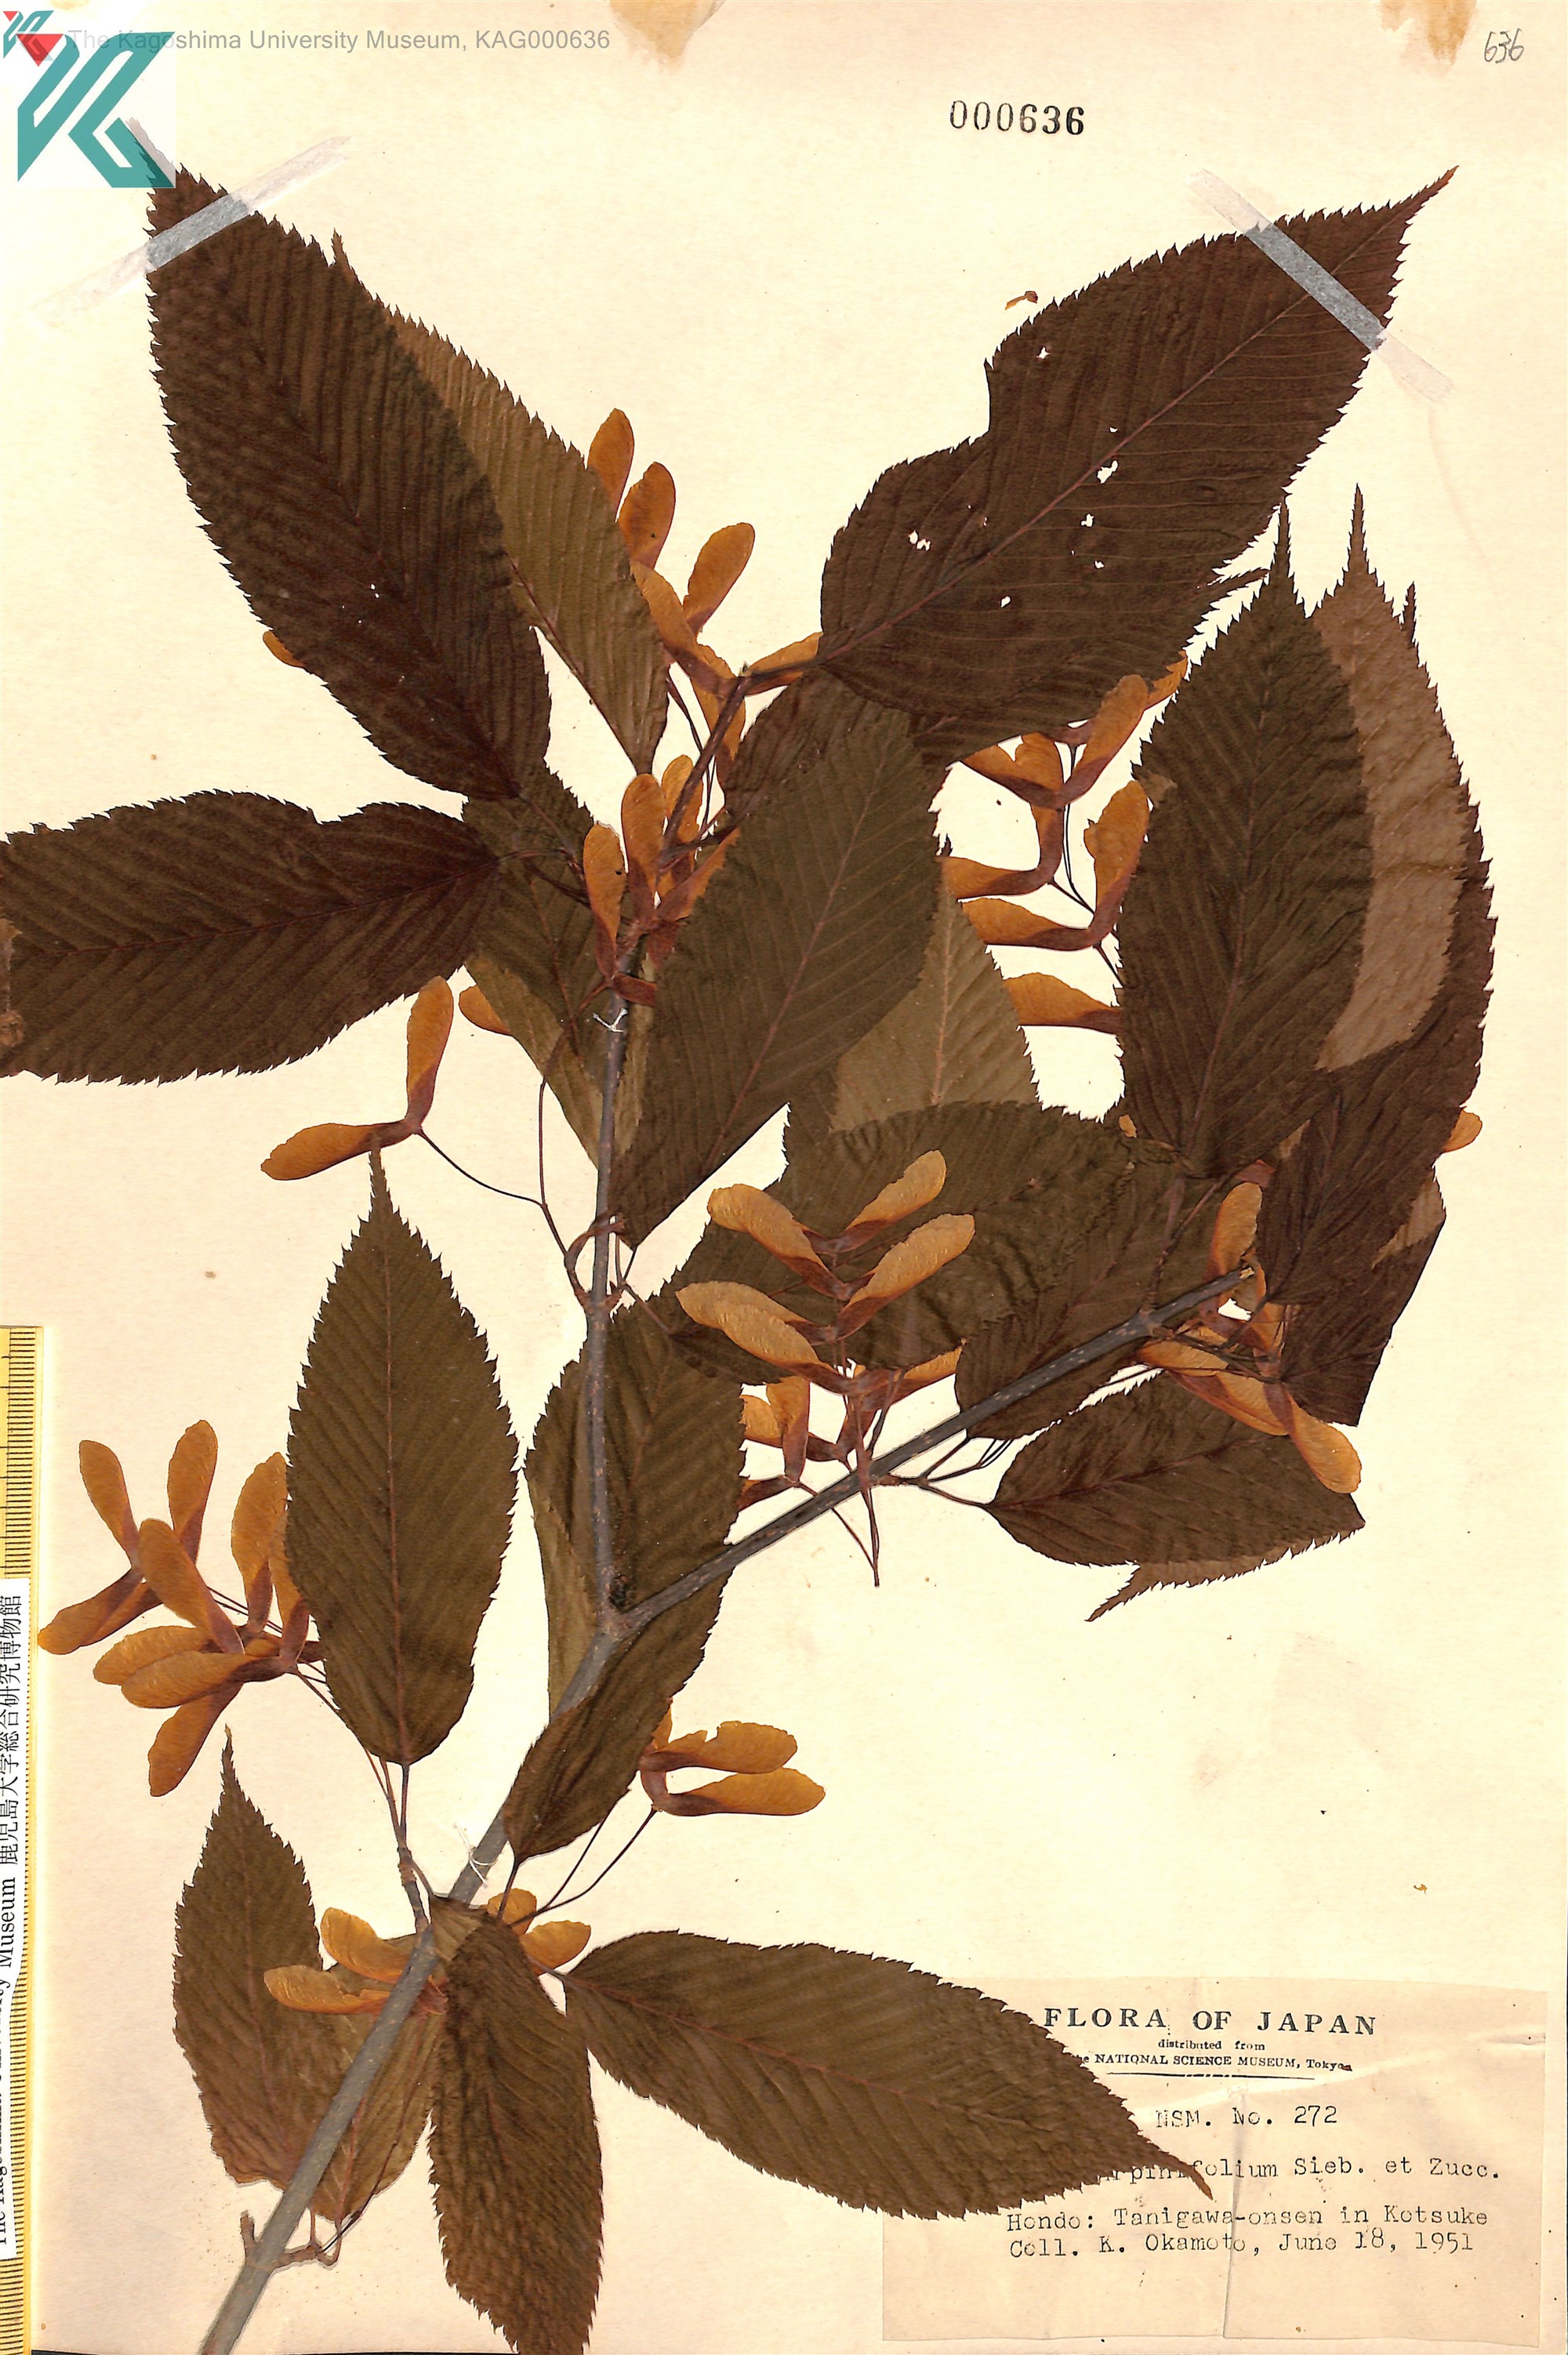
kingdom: Plantae
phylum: Tracheophyta
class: Magnoliopsida
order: Sapindales
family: Sapindaceae
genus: Acer
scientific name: Acer carpinifolium
